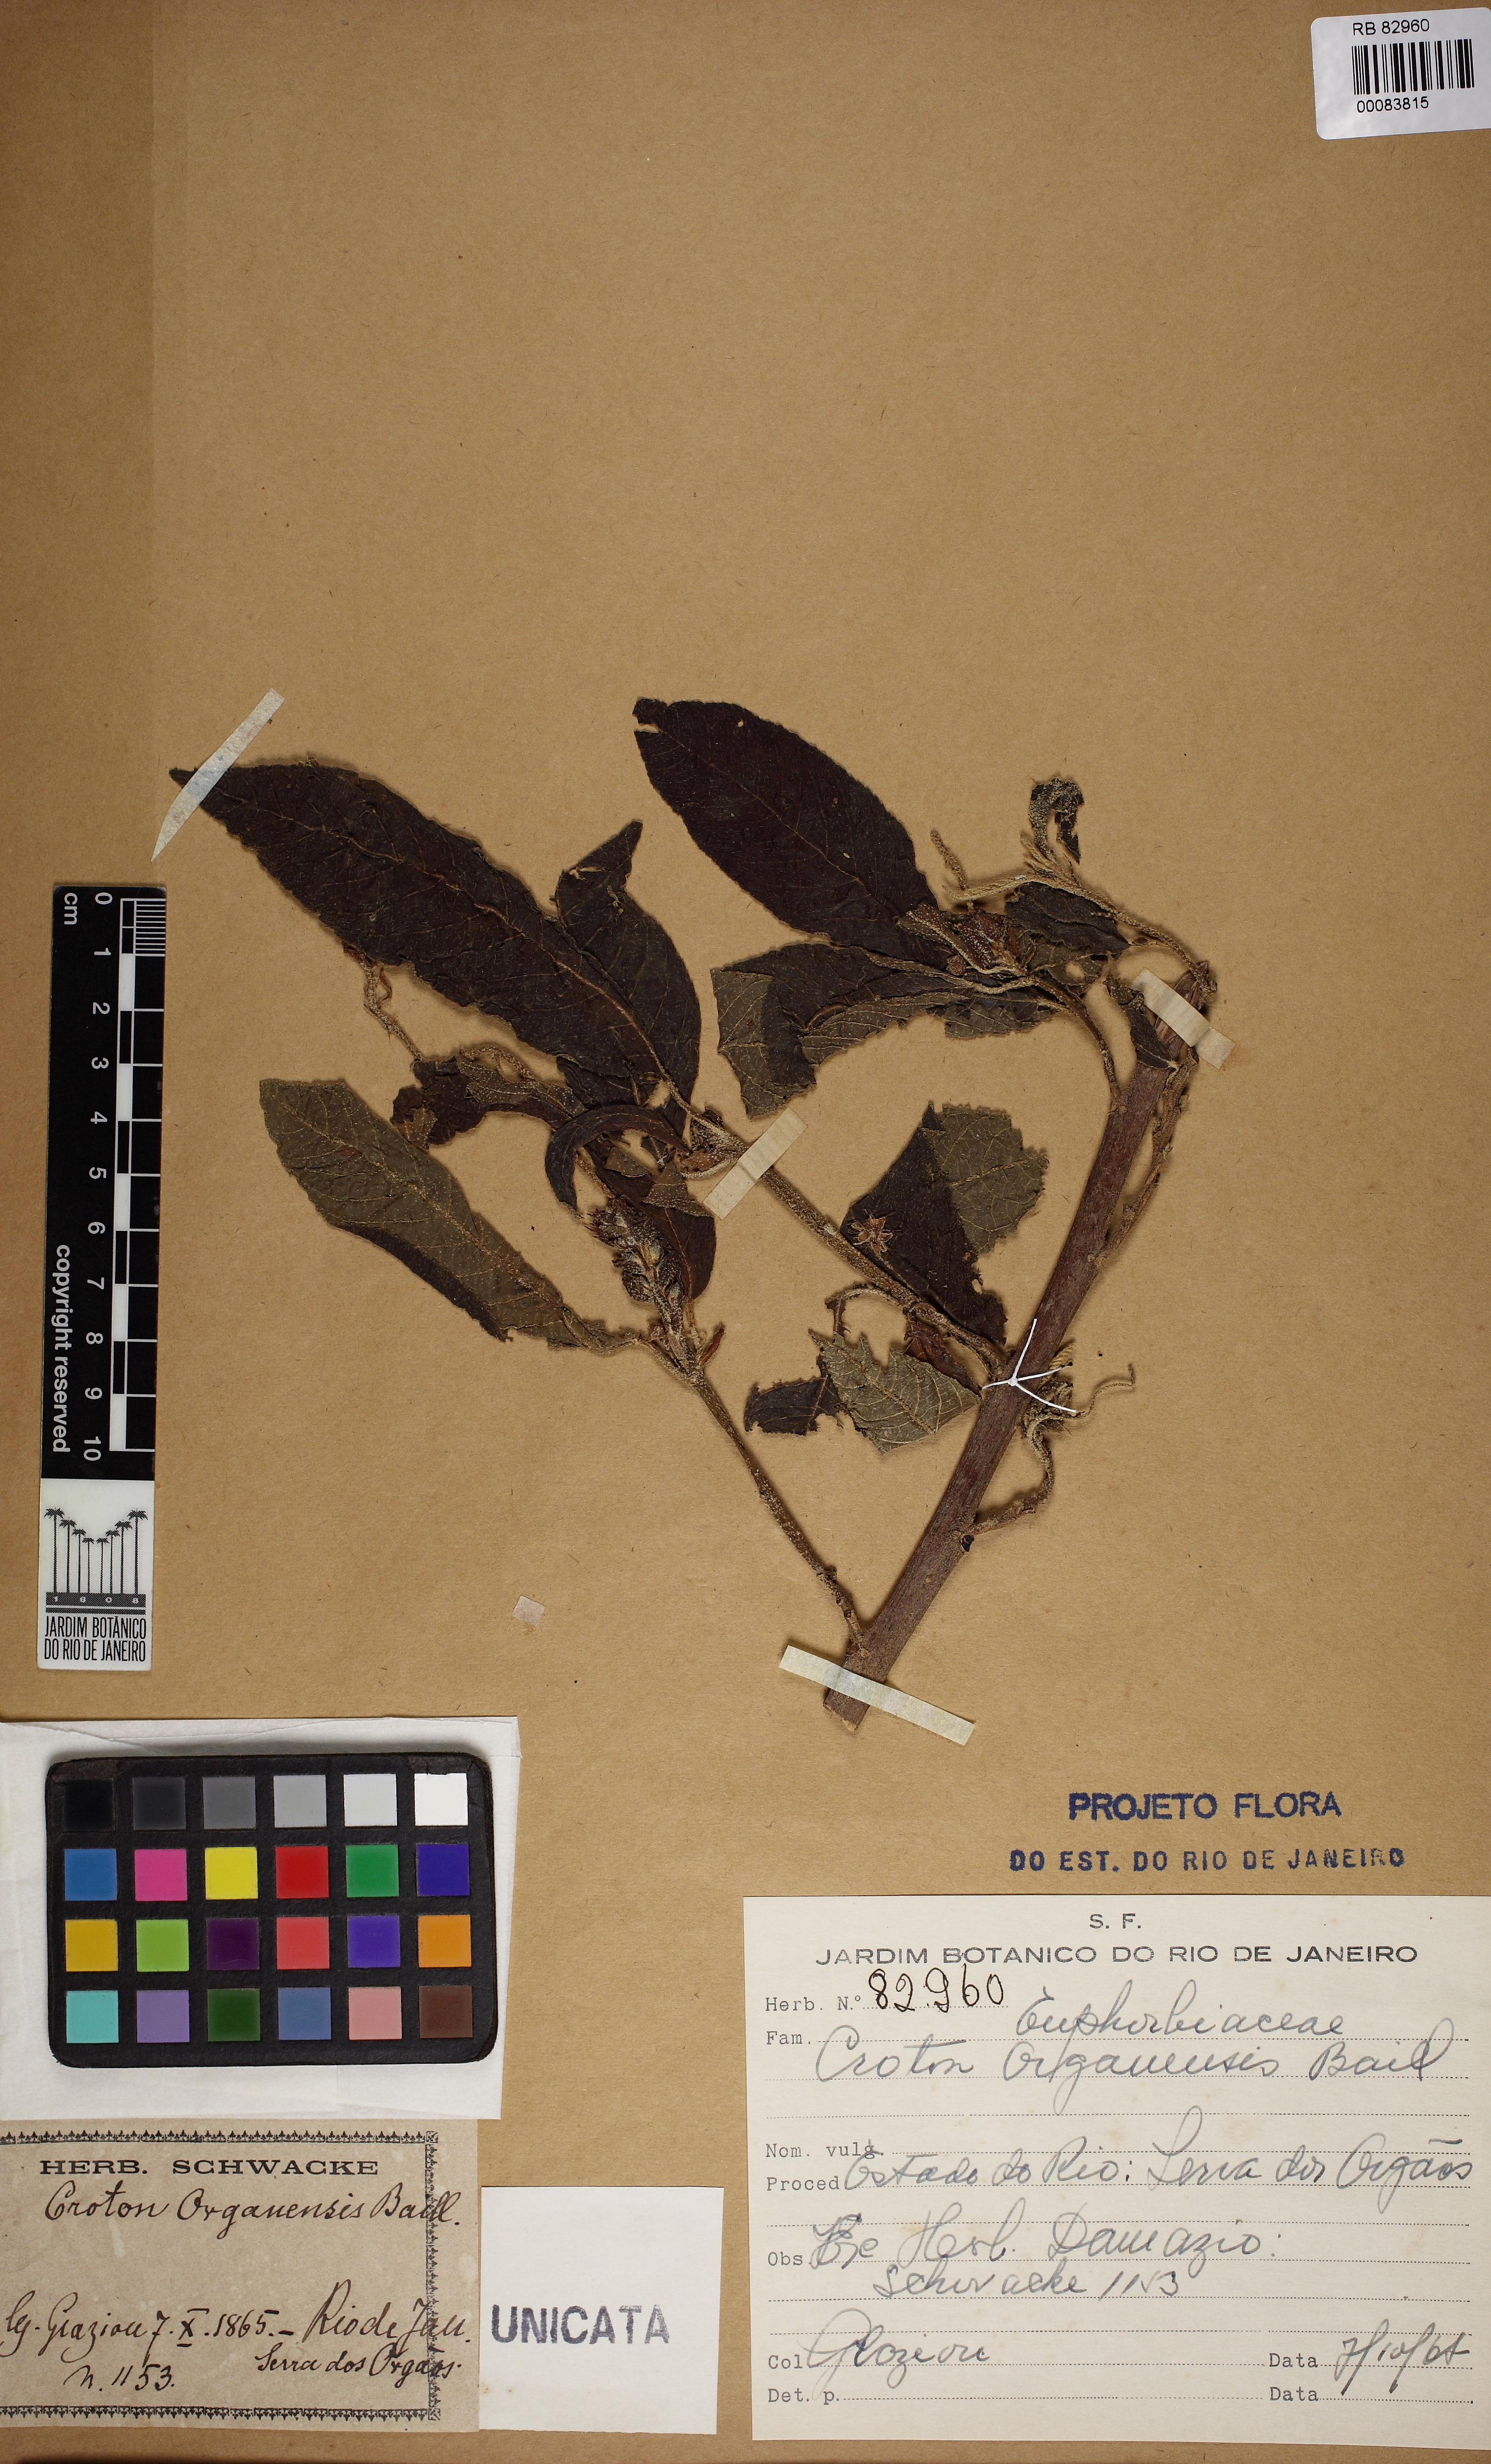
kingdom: Plantae
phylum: Tracheophyta
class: Magnoliopsida
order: Malpighiales
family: Euphorbiaceae
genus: Croton
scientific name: Croton organensis
